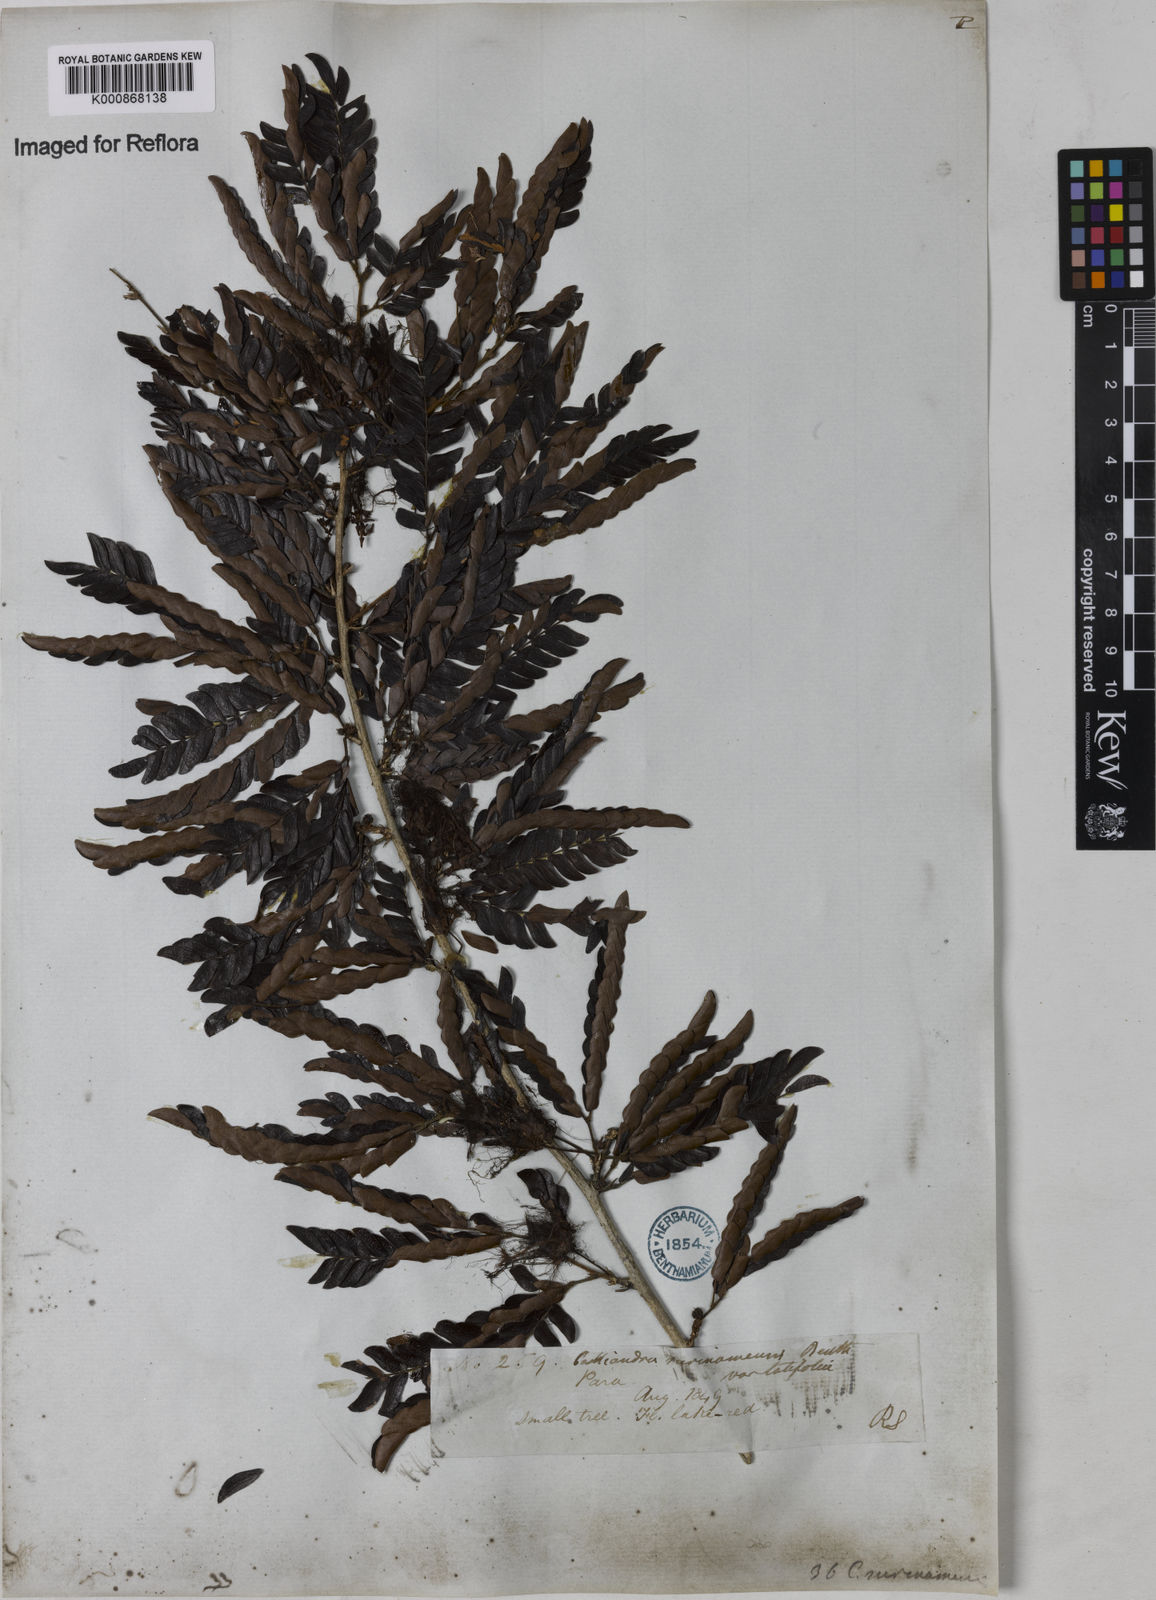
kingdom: Plantae
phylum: Tracheophyta
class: Magnoliopsida
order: Fabales
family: Fabaceae
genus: Calliandra
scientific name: Calliandra surinamensis
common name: Pink powder puff
